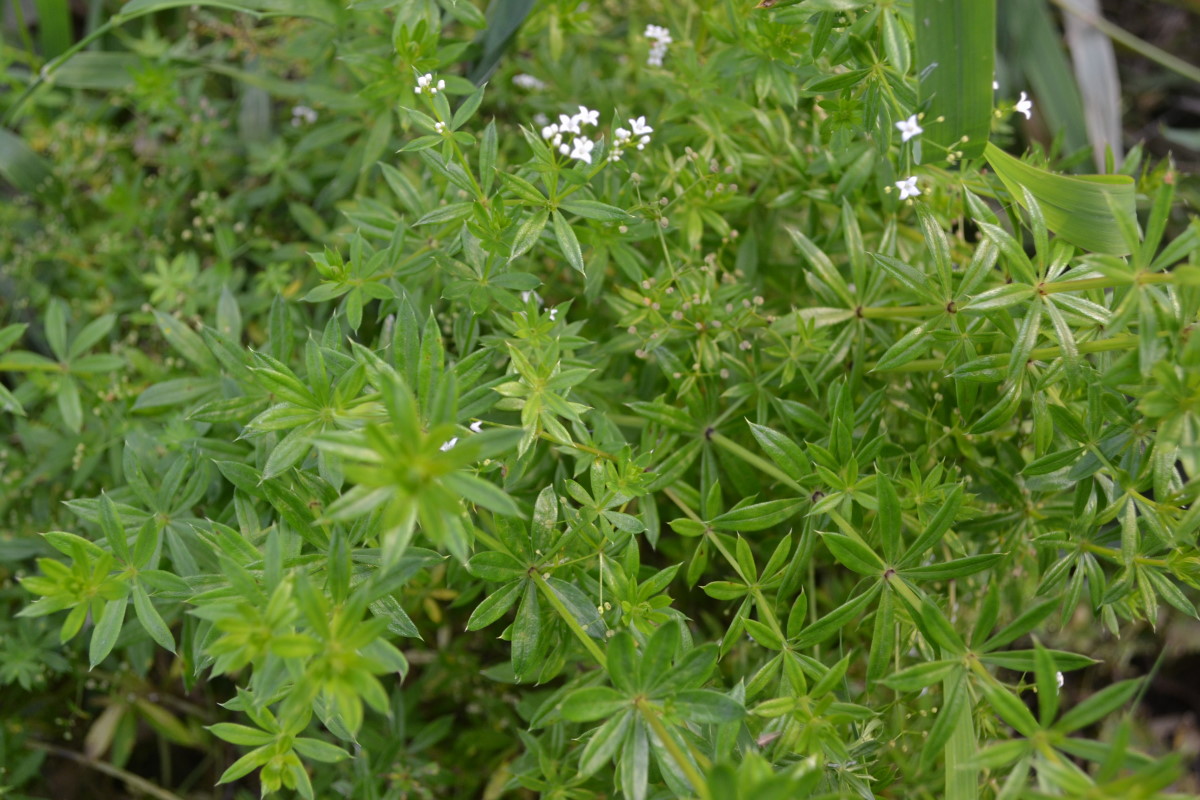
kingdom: Plantae
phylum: Tracheophyta
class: Magnoliopsida
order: Gentianales
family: Rubiaceae
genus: Galium
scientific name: Galium rivale
